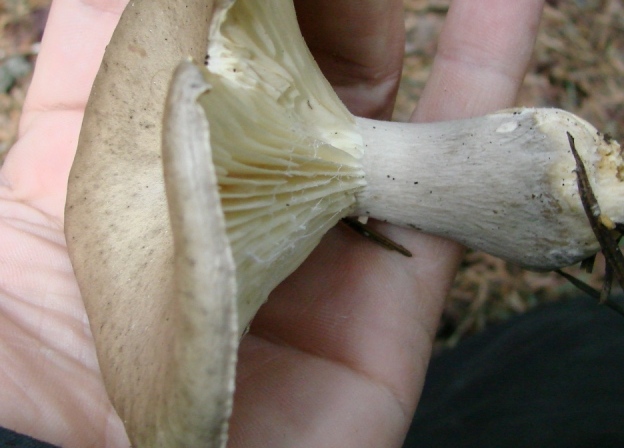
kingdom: Fungi
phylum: Basidiomycota
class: Agaricomycetes
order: Agaricales
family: Hygrophoraceae
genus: Ampulloclitocybe
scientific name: Ampulloclitocybe clavipes
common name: køllefod
